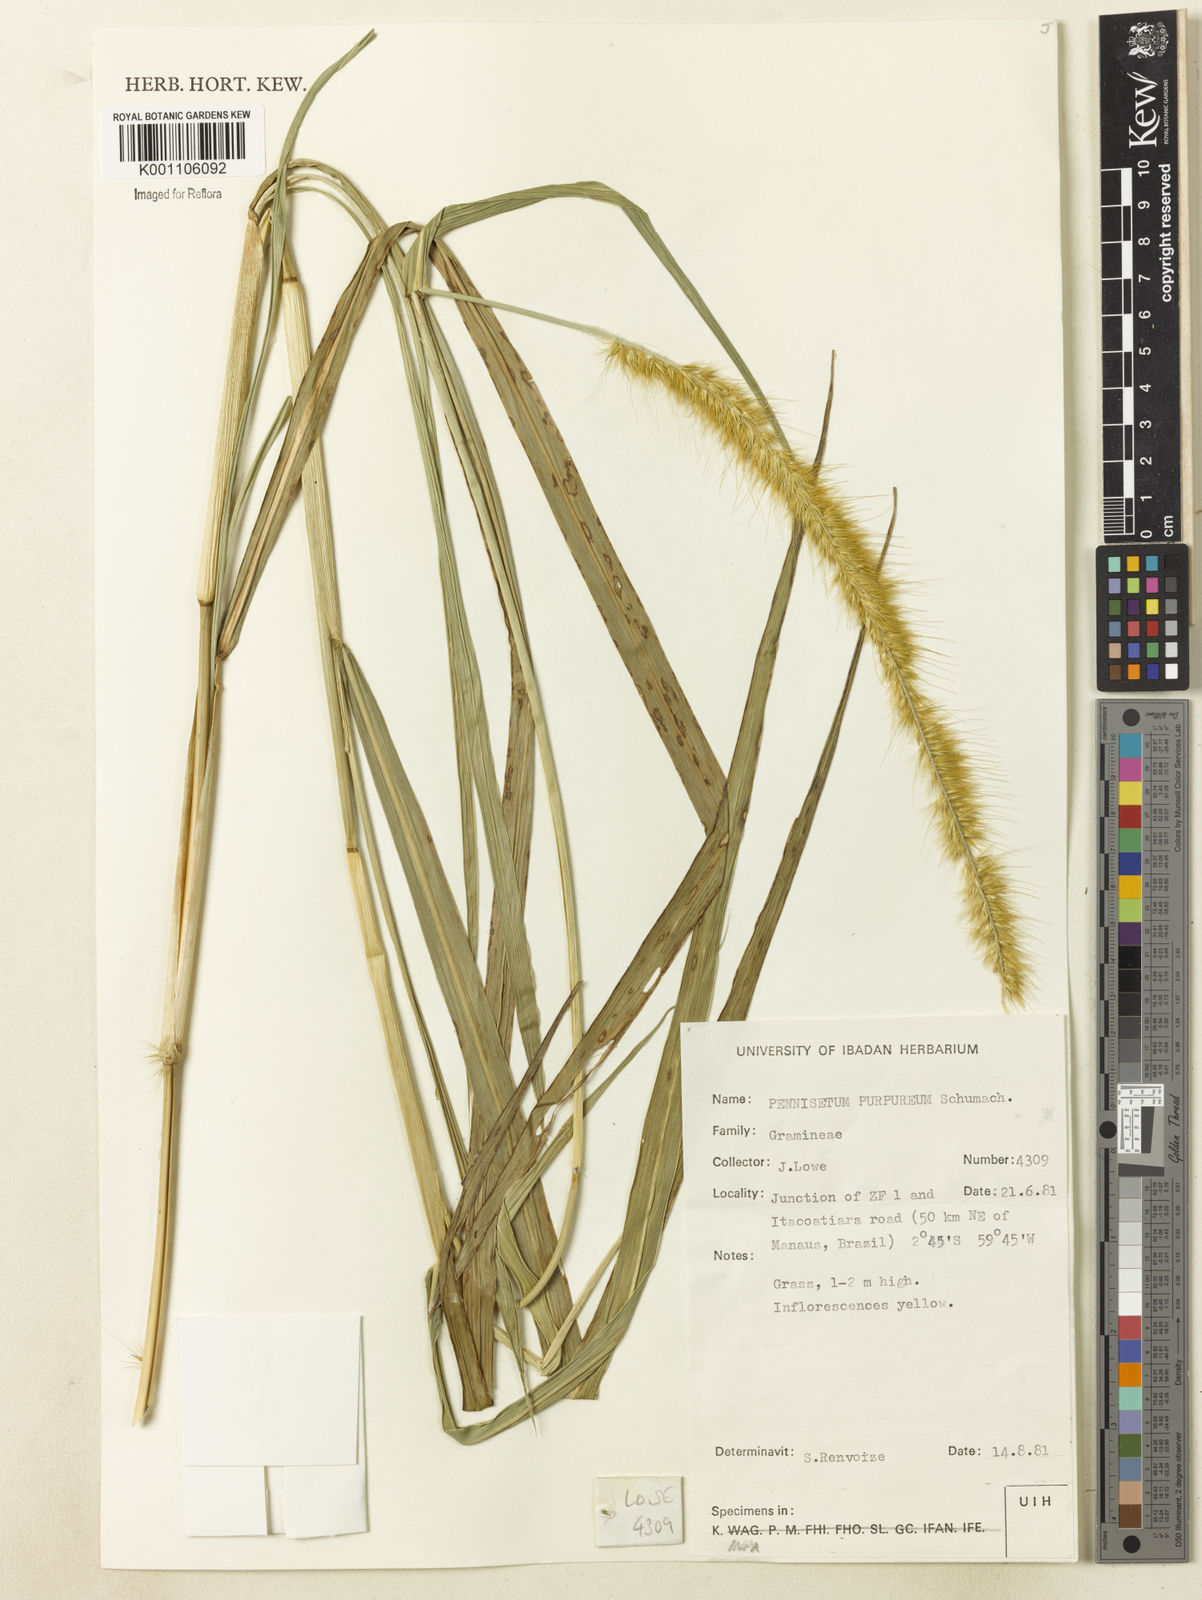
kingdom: Plantae
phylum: Tracheophyta
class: Liliopsida
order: Poales
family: Poaceae
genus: Cenchrus
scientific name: Cenchrus purpureus
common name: Elephant grass
